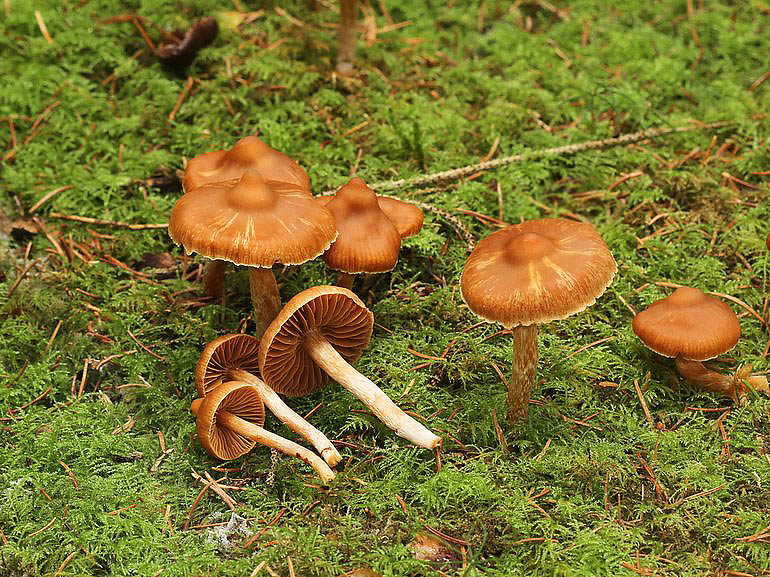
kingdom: Fungi
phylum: Basidiomycota
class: Agaricomycetes
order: Agaricales
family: Cortinariaceae
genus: Cortinarius
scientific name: Cortinarius
